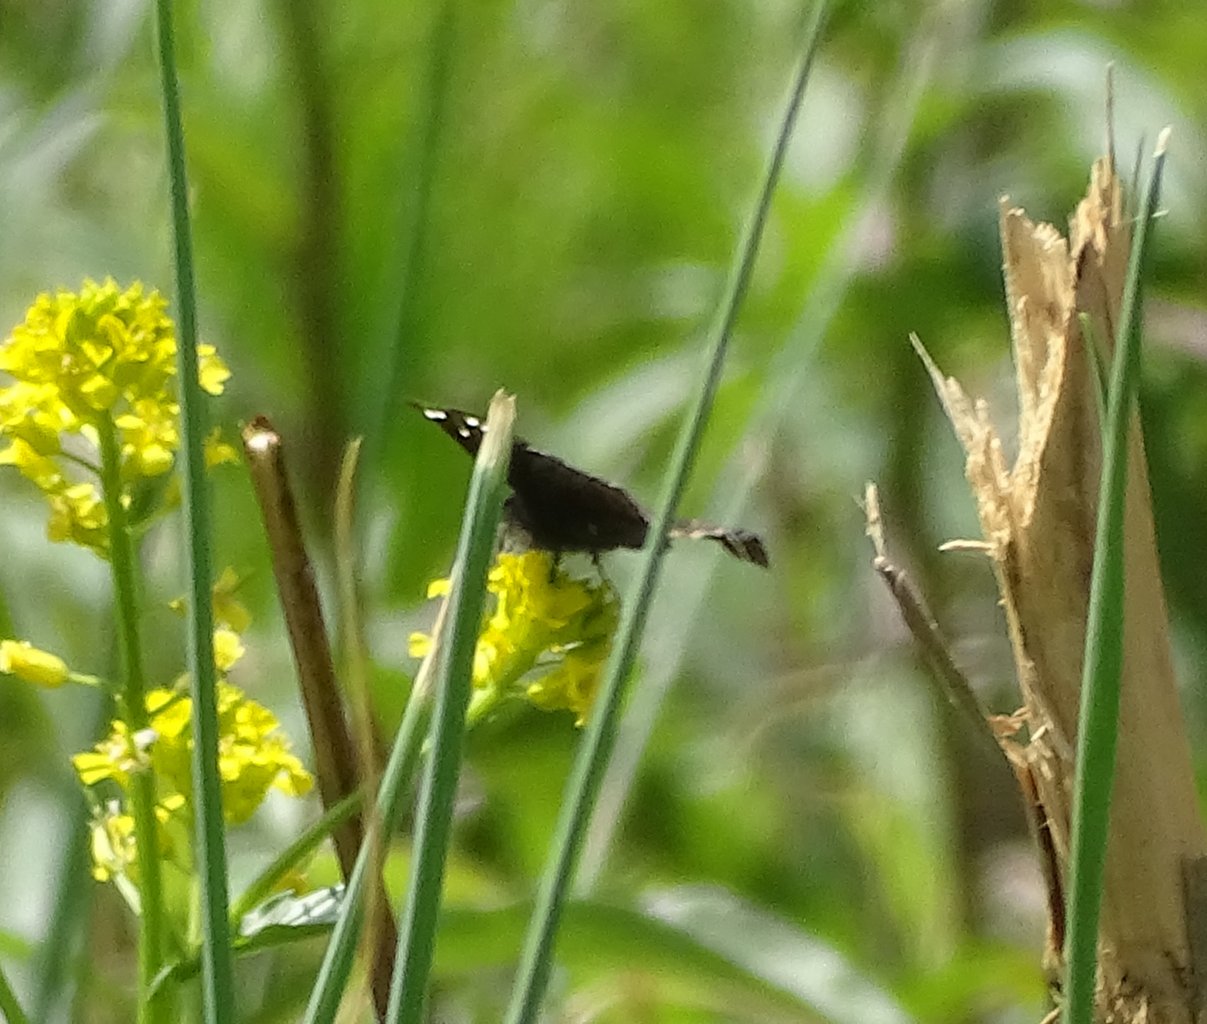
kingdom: Animalia
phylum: Arthropoda
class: Insecta
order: Lepidoptera
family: Hesperiidae
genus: Gesta
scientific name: Gesta
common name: Juvenal's Duskywing
